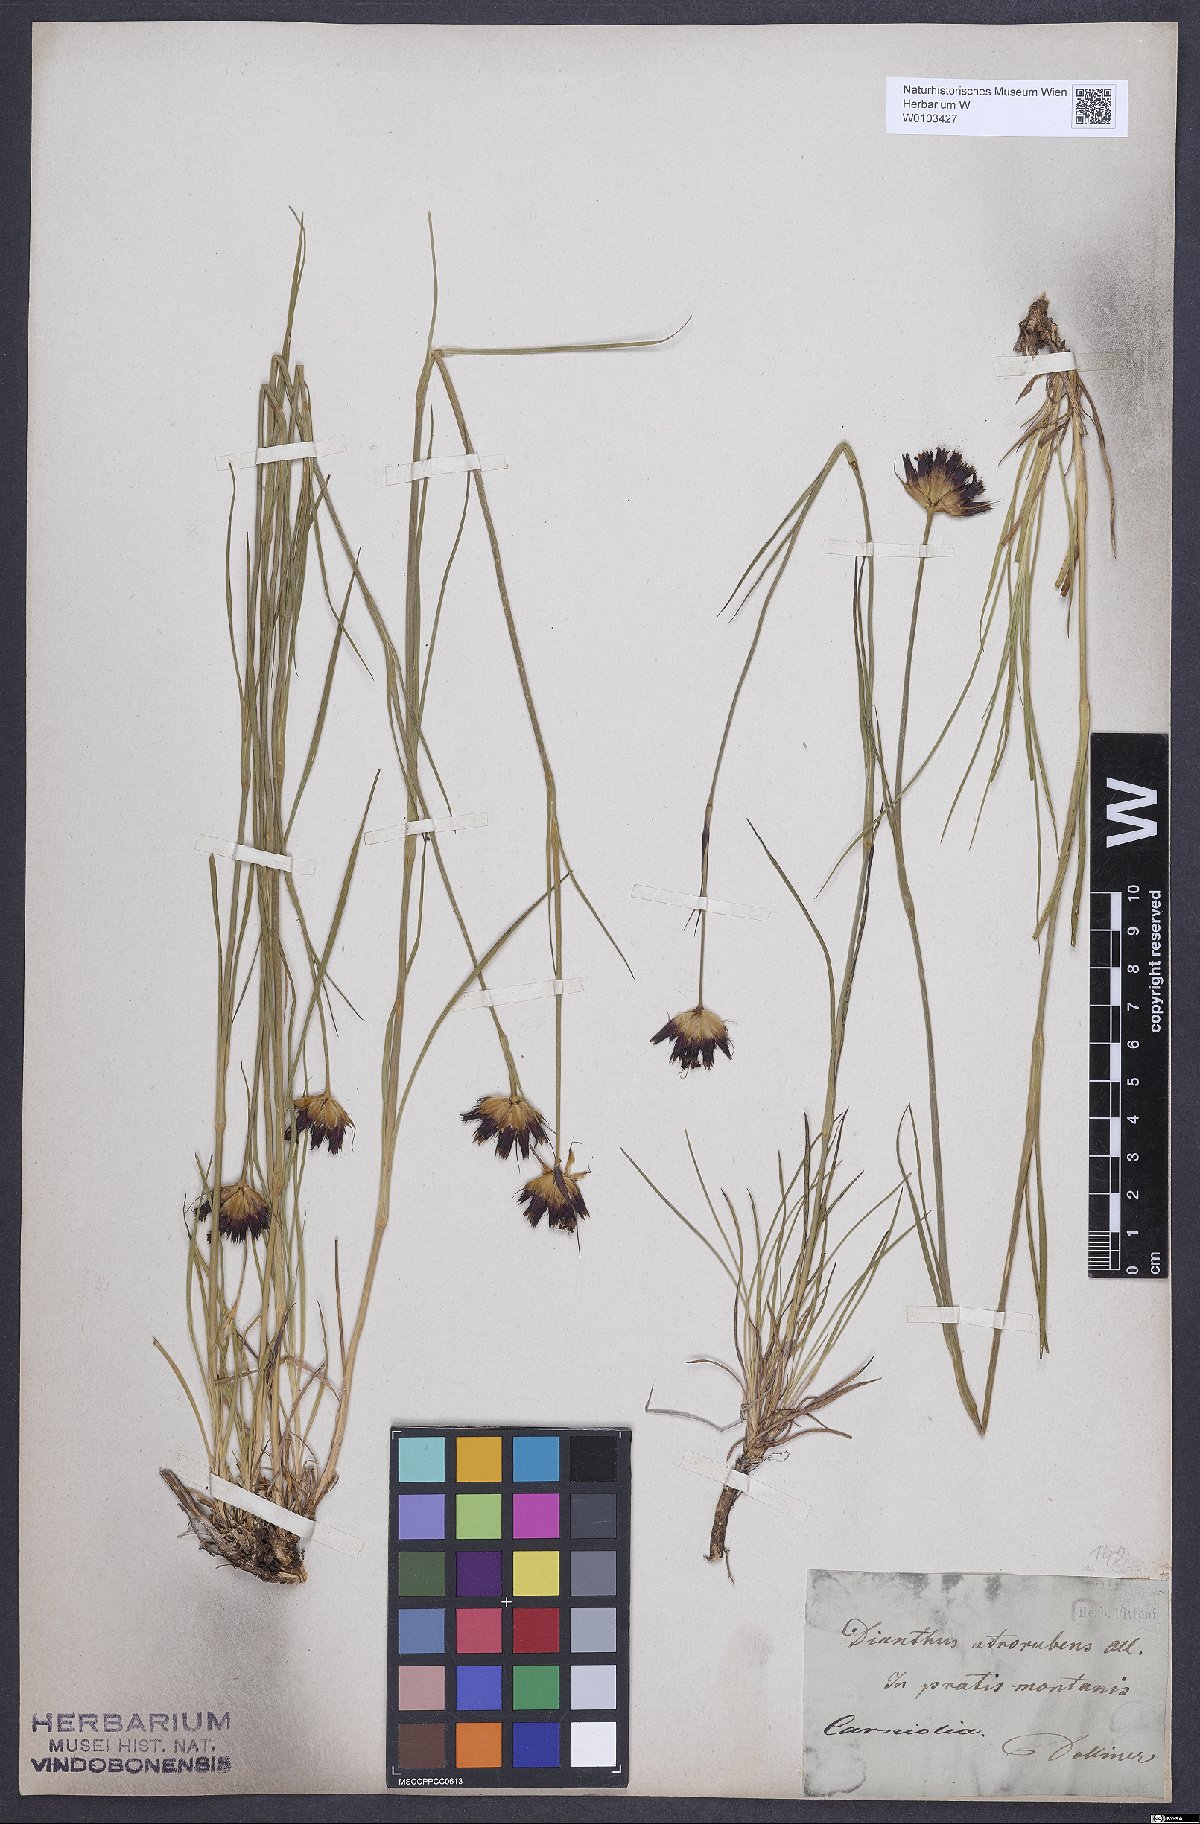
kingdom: Plantae
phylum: Tracheophyta
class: Magnoliopsida
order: Caryophyllales
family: Caryophyllaceae
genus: Dianthus
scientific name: Dianthus carthusianorum
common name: Carthusian pink
